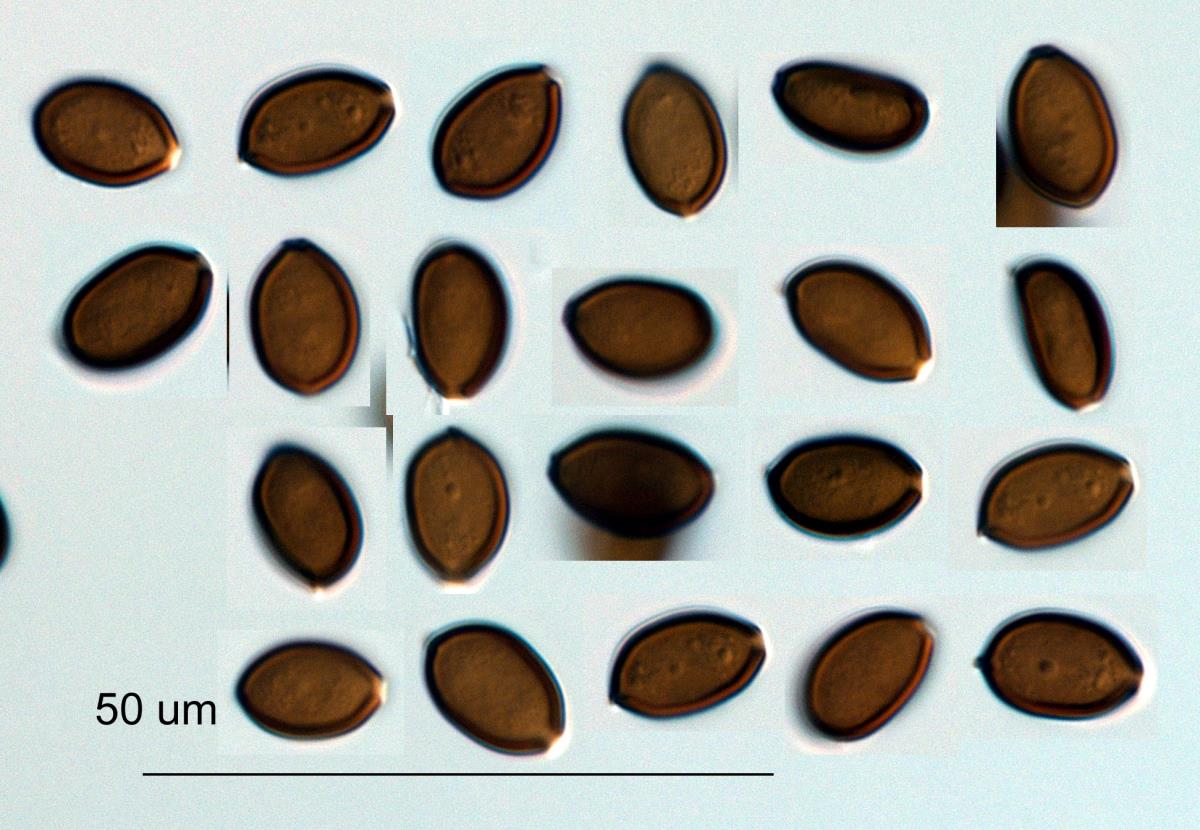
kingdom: Fungi
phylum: Basidiomycota
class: Agaricomycetes
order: Agaricales
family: Strophariaceae
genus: Deconica
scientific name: Deconica coprophila
